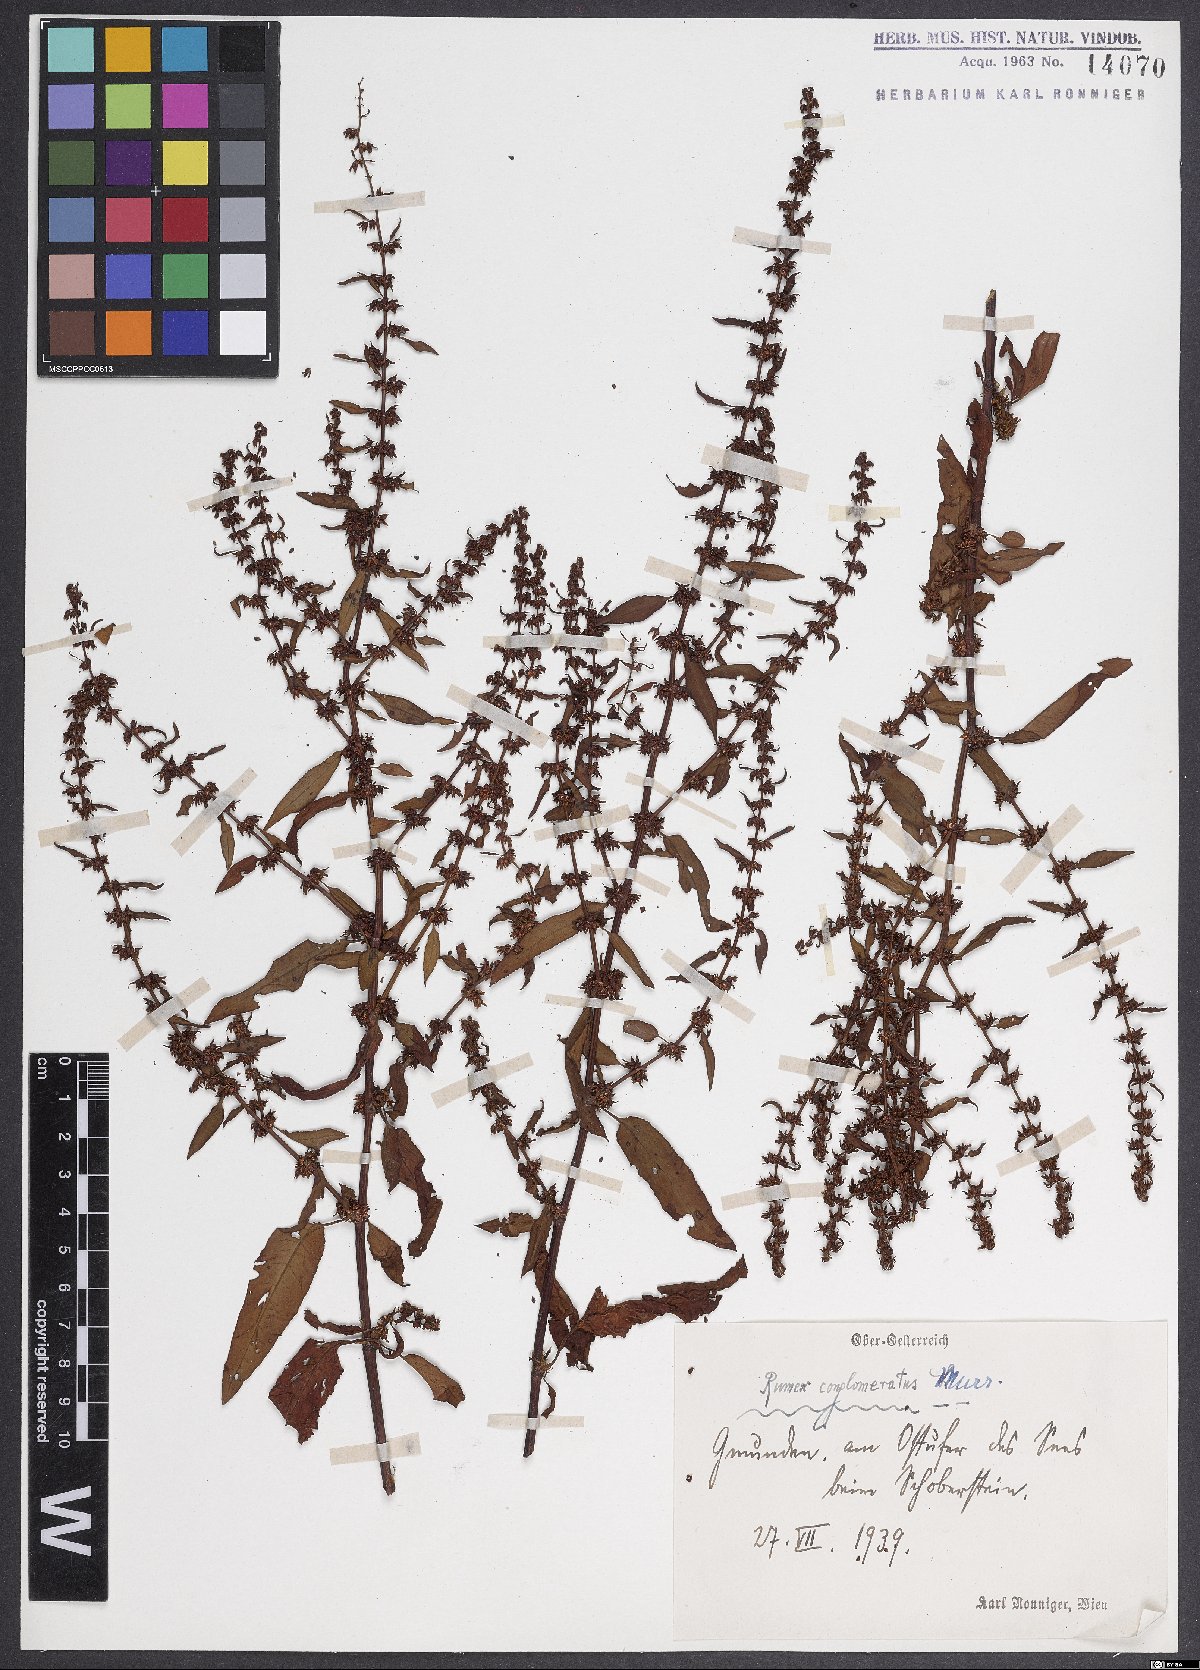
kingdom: Plantae
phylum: Tracheophyta
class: Magnoliopsida
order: Caryophyllales
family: Polygonaceae
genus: Rumex
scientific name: Rumex conglomeratus
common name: Clustered dock
